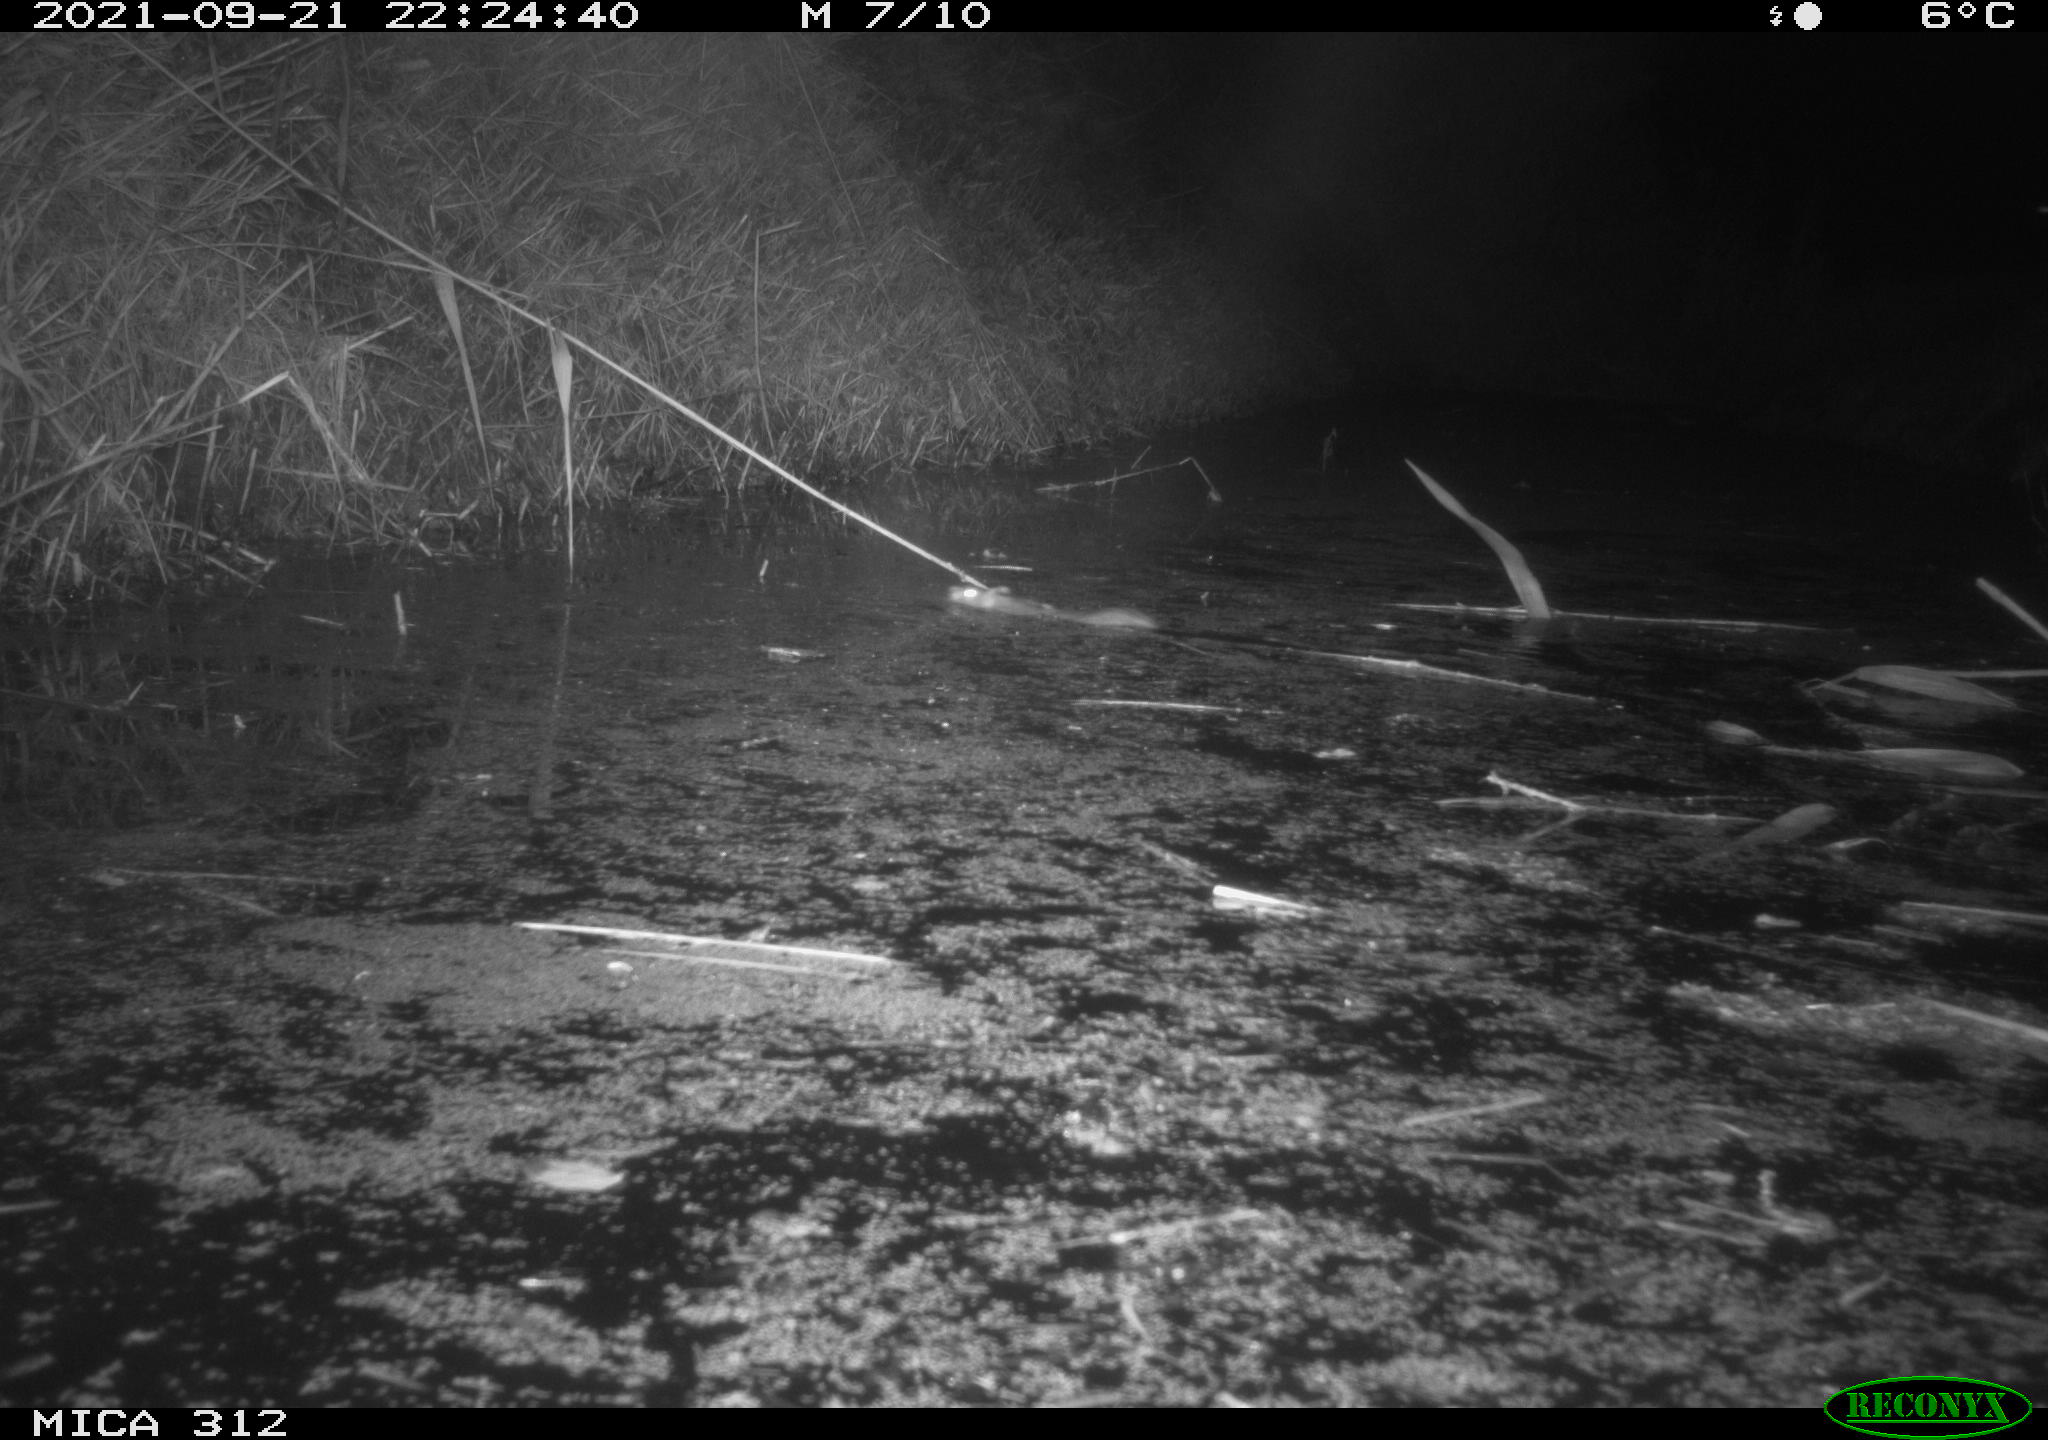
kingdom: Animalia
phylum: Chordata
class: Mammalia
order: Rodentia
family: Muridae
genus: Rattus
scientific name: Rattus norvegicus
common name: Brown rat
